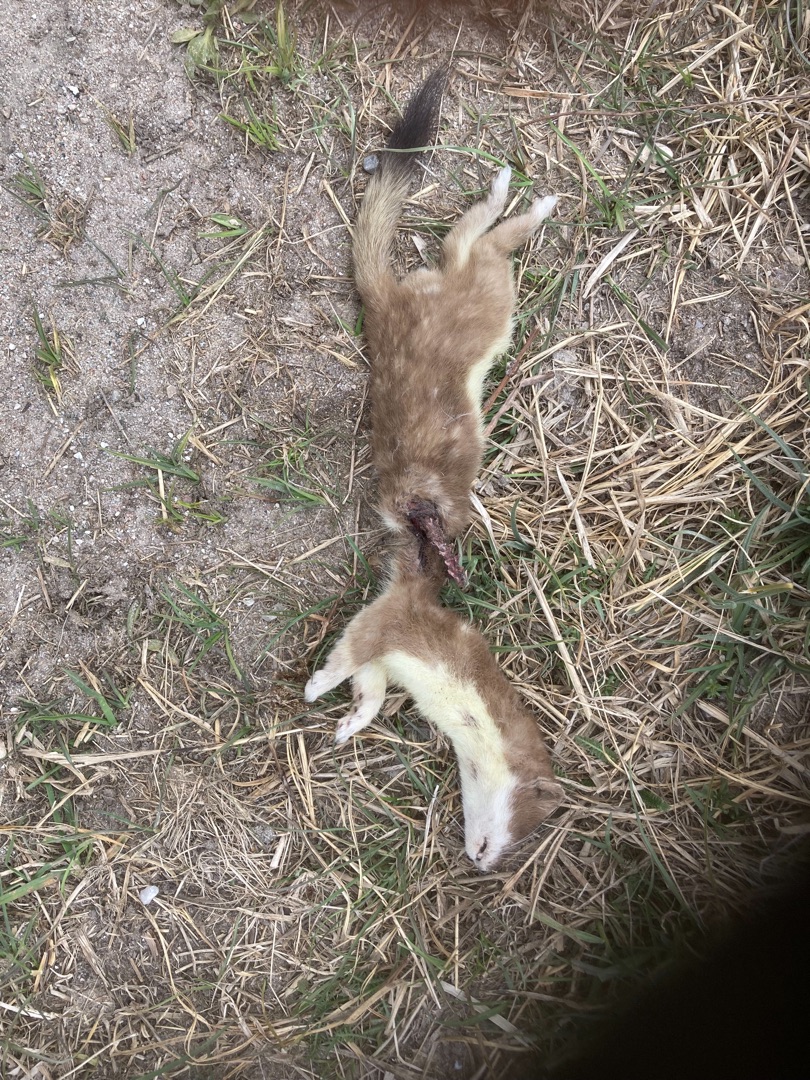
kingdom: Animalia
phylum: Chordata
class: Mammalia
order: Carnivora
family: Mustelidae
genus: Mustela
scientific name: Mustela erminea
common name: Lækat
